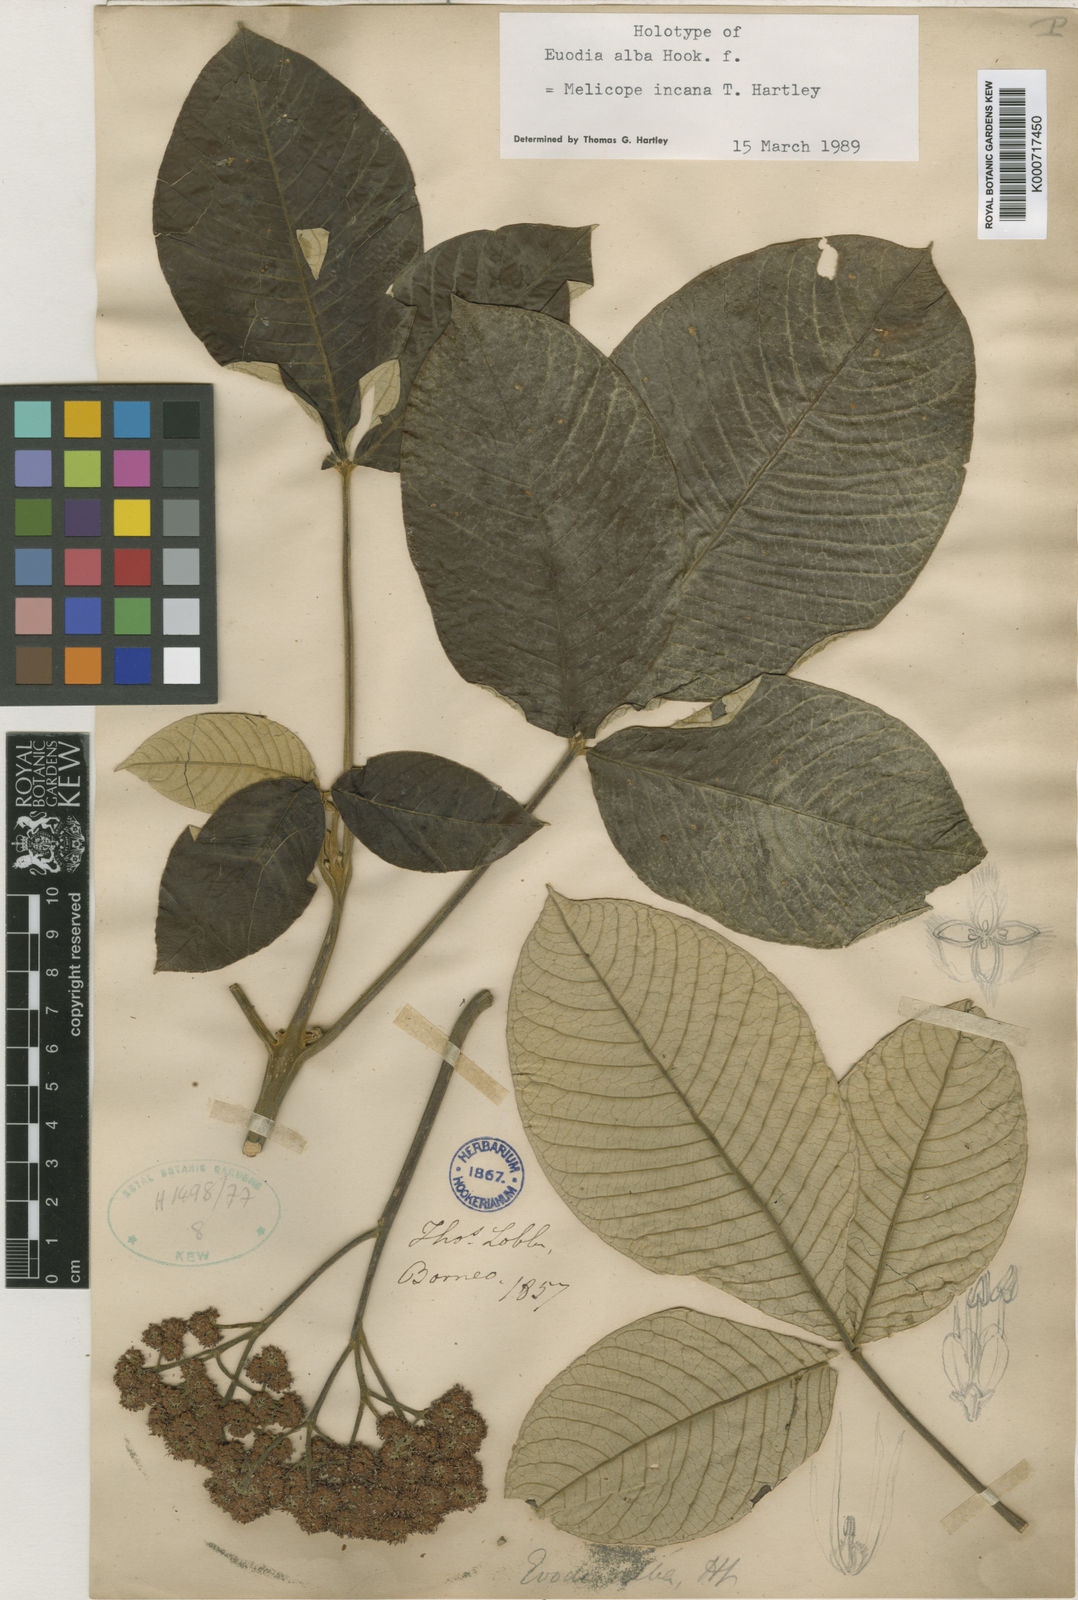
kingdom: Plantae
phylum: Tracheophyta
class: Magnoliopsida
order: Sapindales
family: Rutaceae
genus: Melicope
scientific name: Melicope incana
